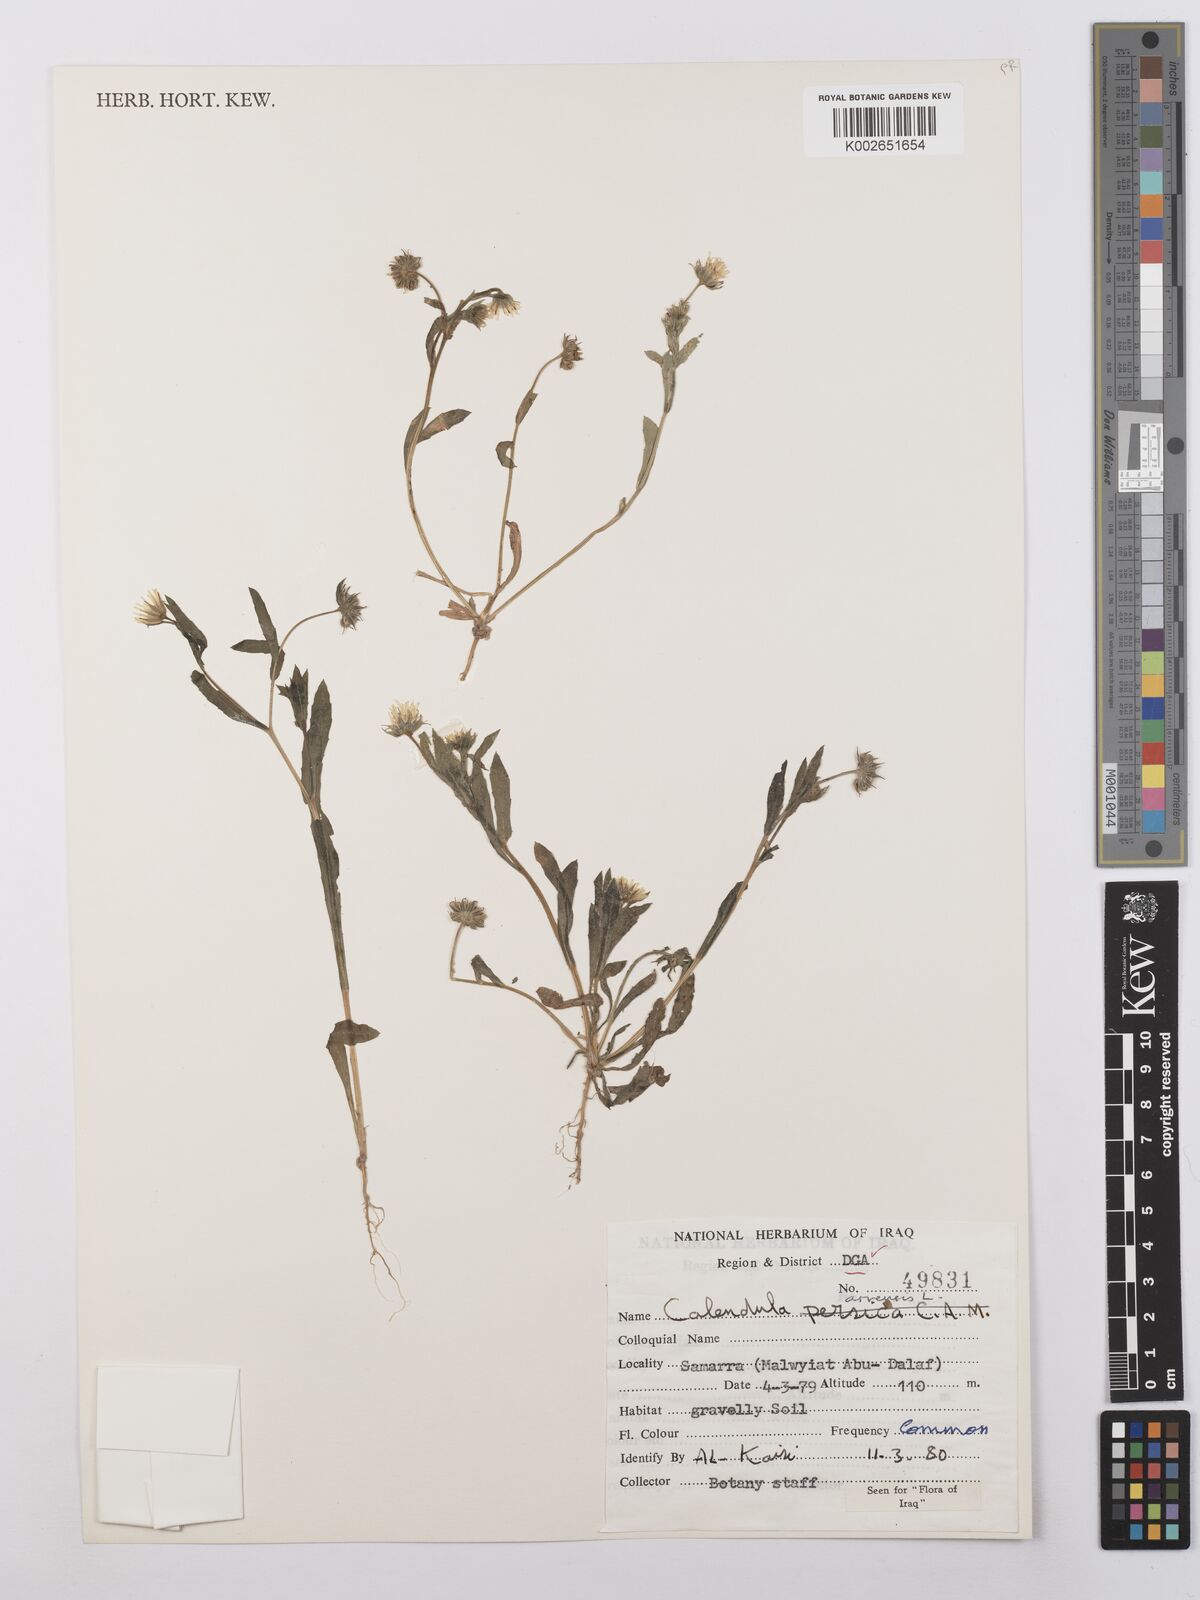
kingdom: Plantae
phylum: Tracheophyta
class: Magnoliopsida
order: Asterales
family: Asteraceae
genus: Calendula
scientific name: Calendula arvensis
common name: Field marigold
